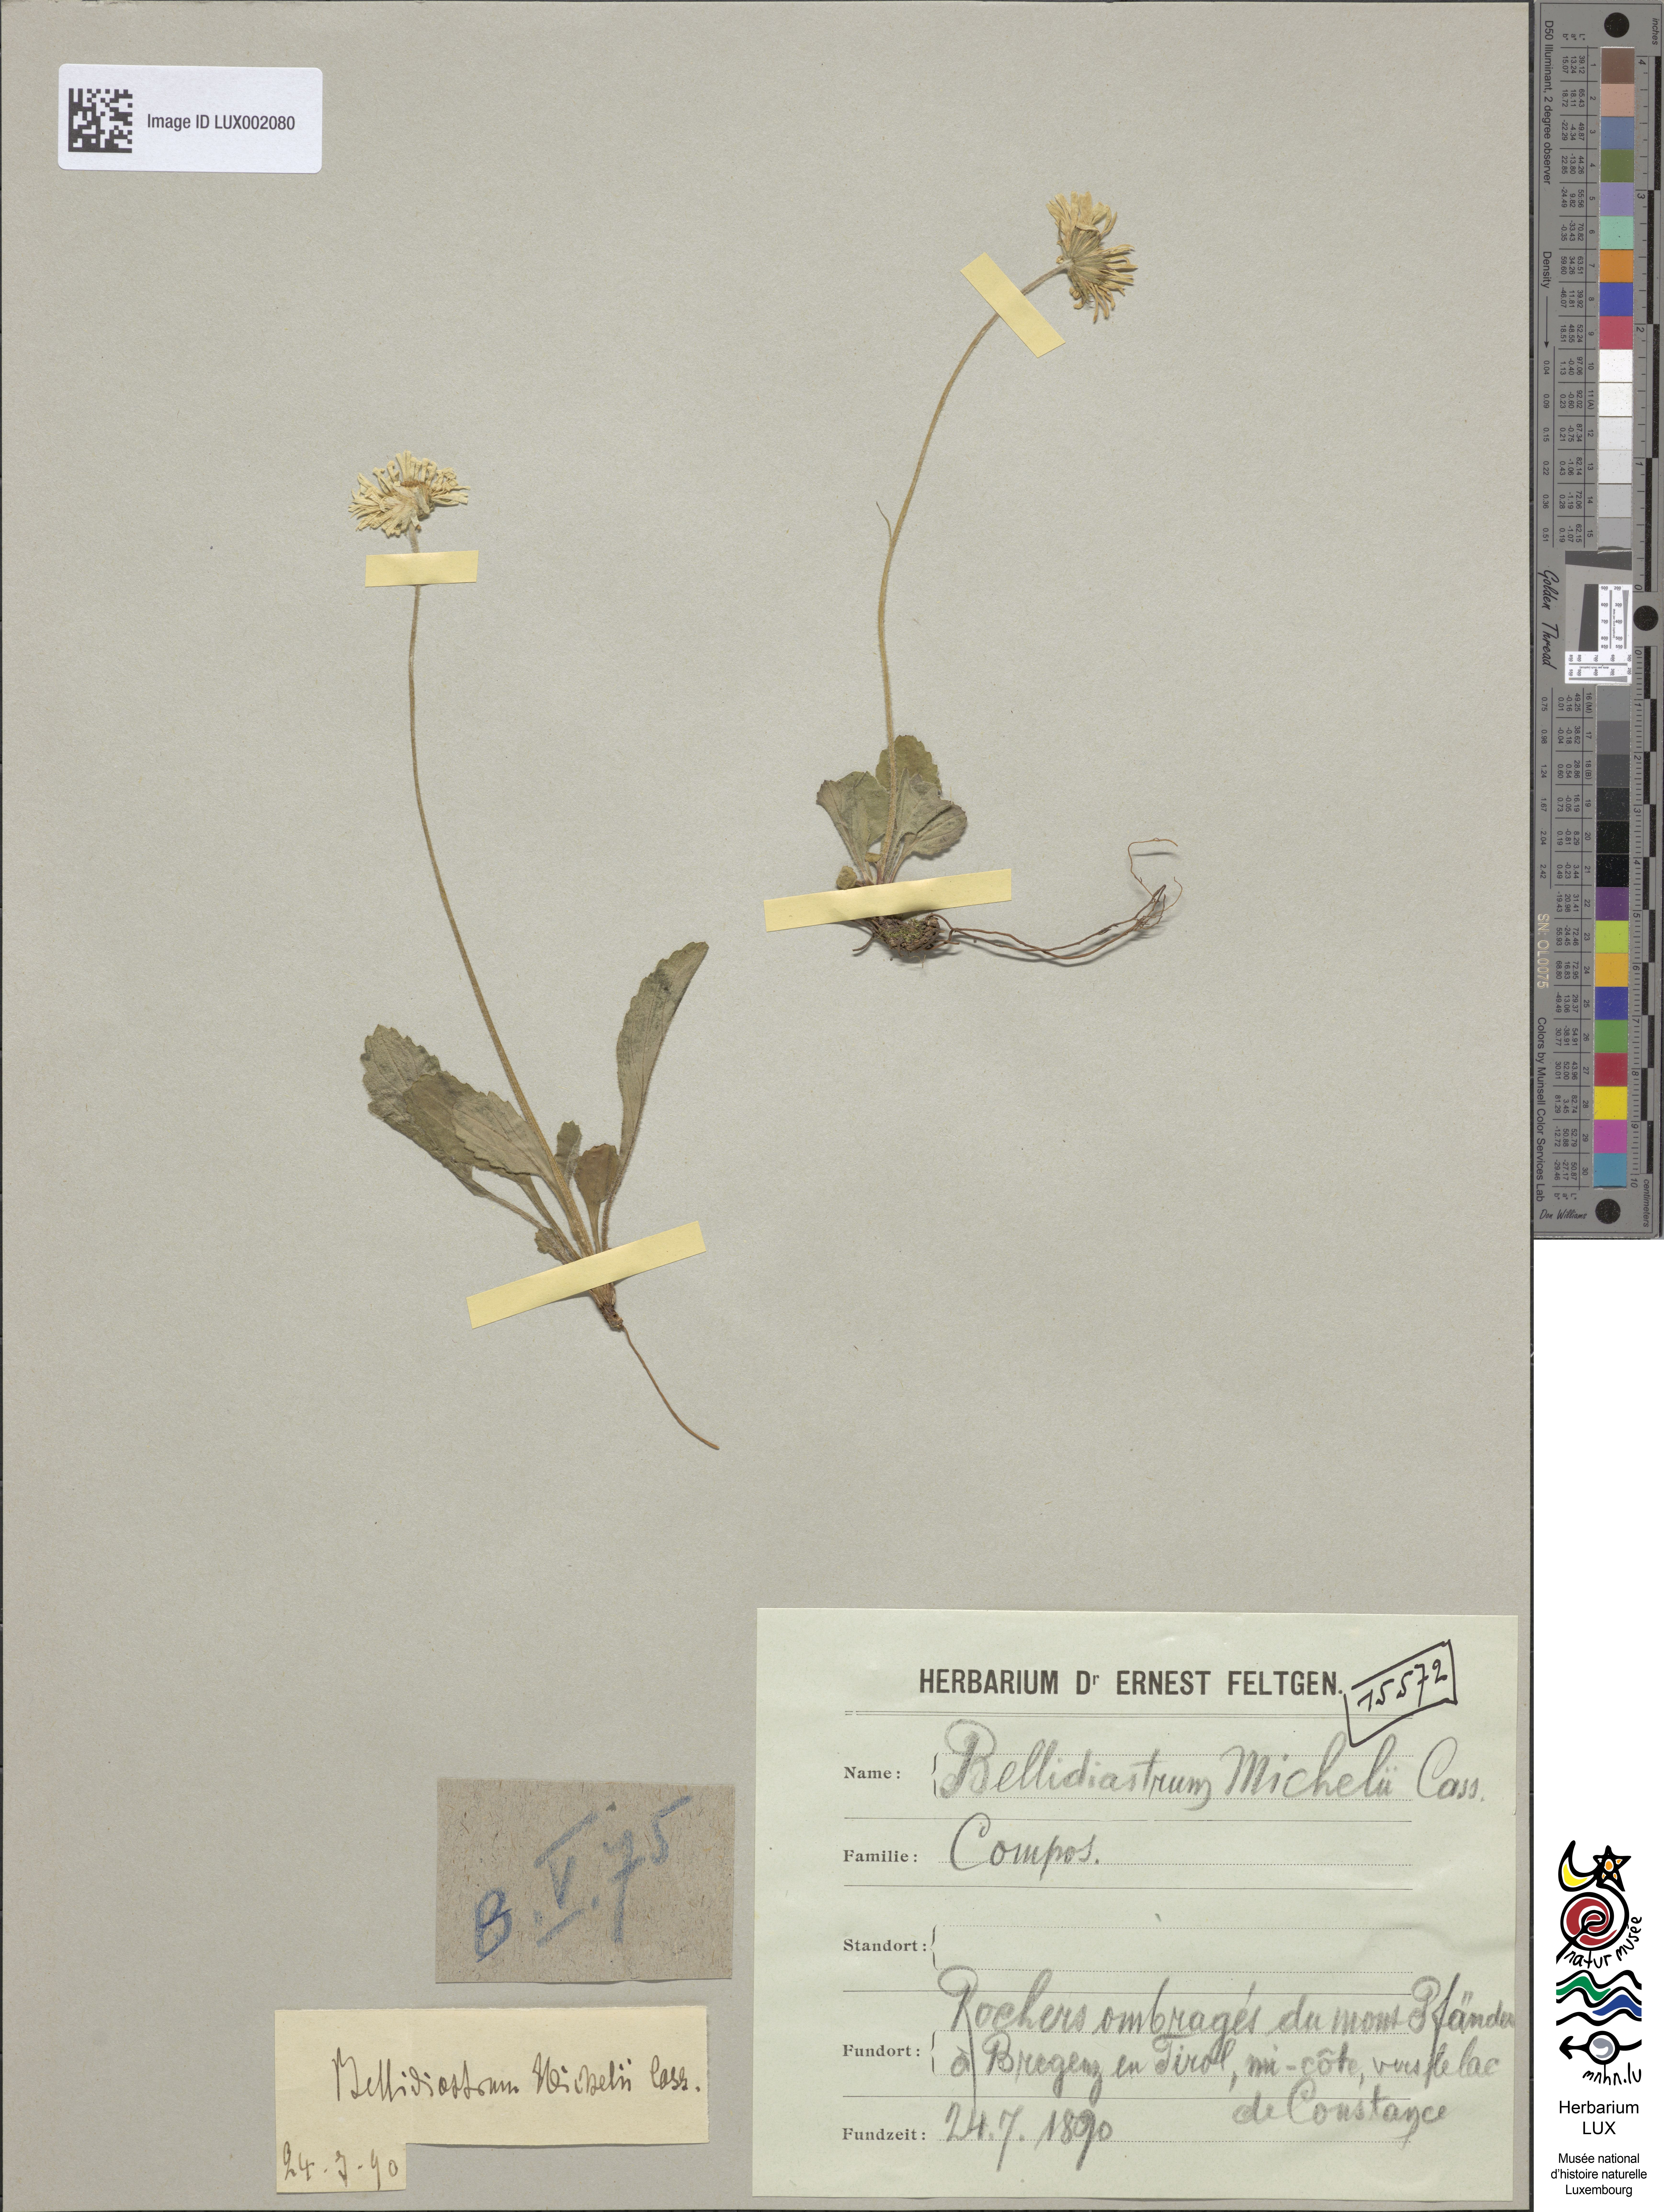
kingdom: Plantae
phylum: Tracheophyta
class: Magnoliopsida
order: Asterales
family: Asteraceae
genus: Bellidiastrum
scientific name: Bellidiastrum michelii
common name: Daisy-star aster
